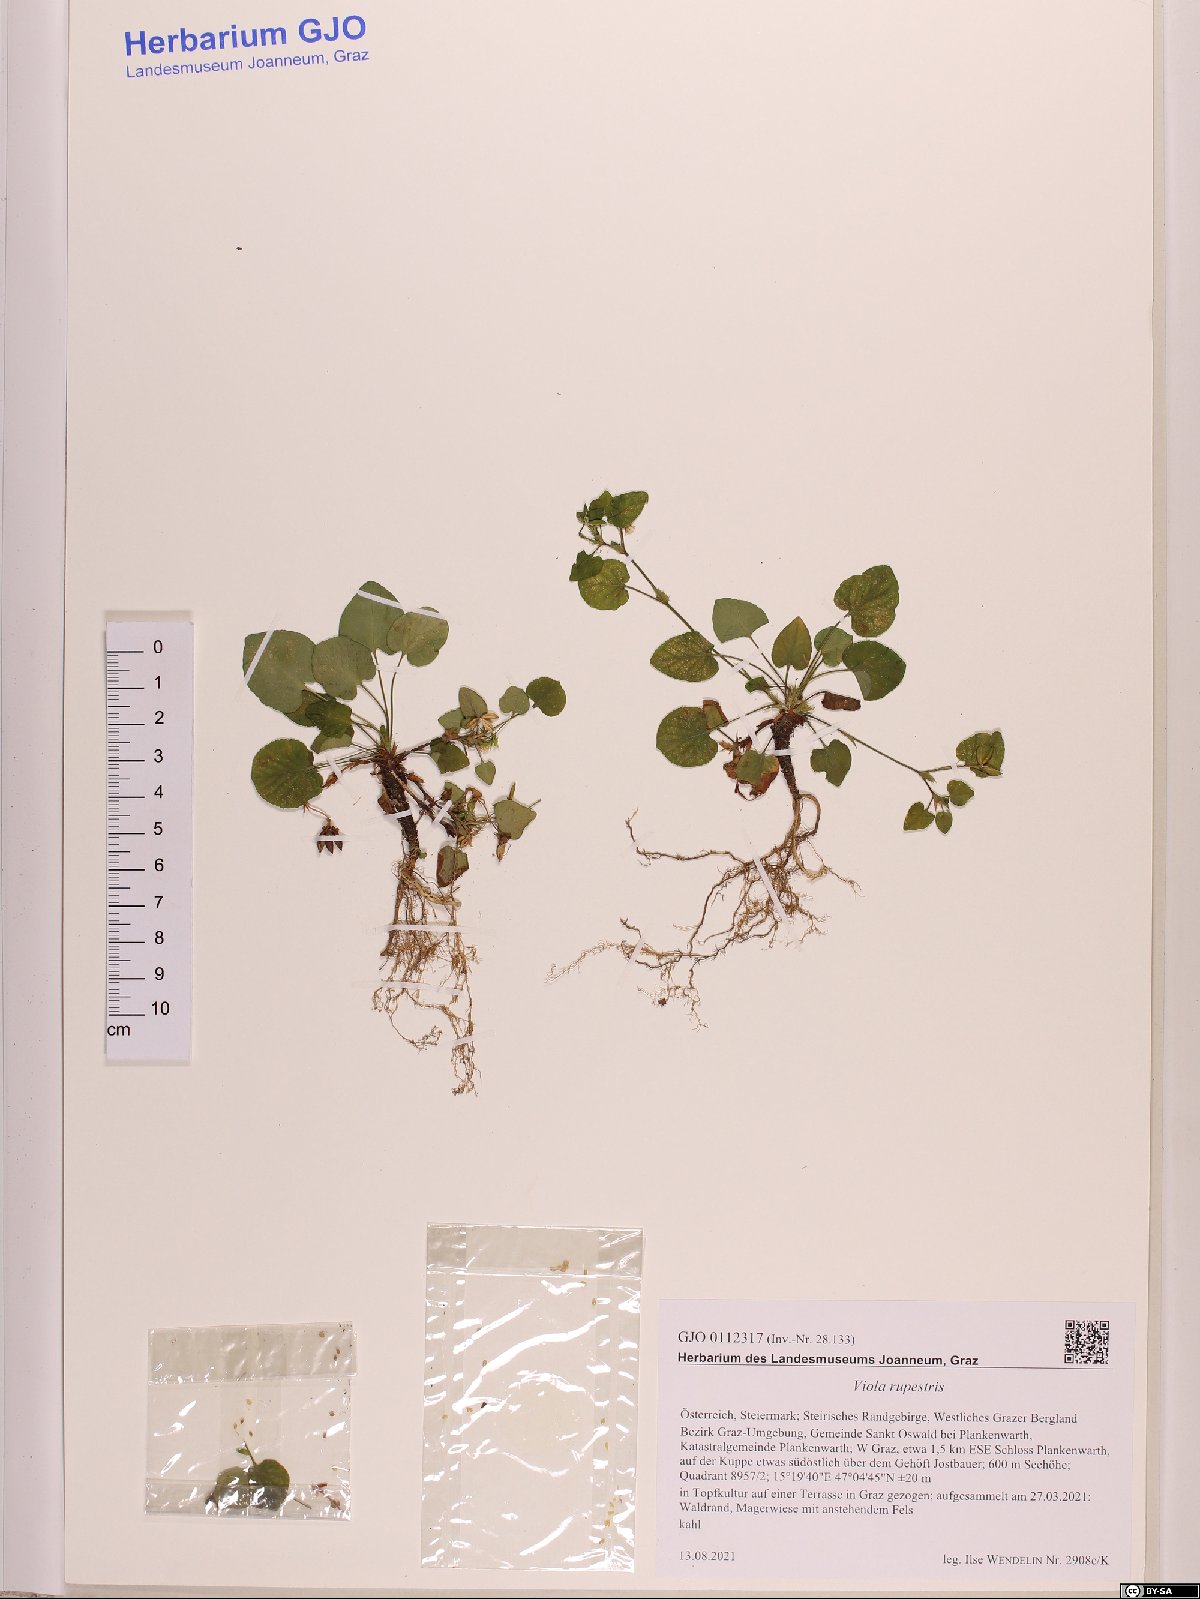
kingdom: Plantae
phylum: Tracheophyta
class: Magnoliopsida
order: Malpighiales
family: Violaceae
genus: Viola
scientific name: Viola rupestris
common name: Teesdale violet
